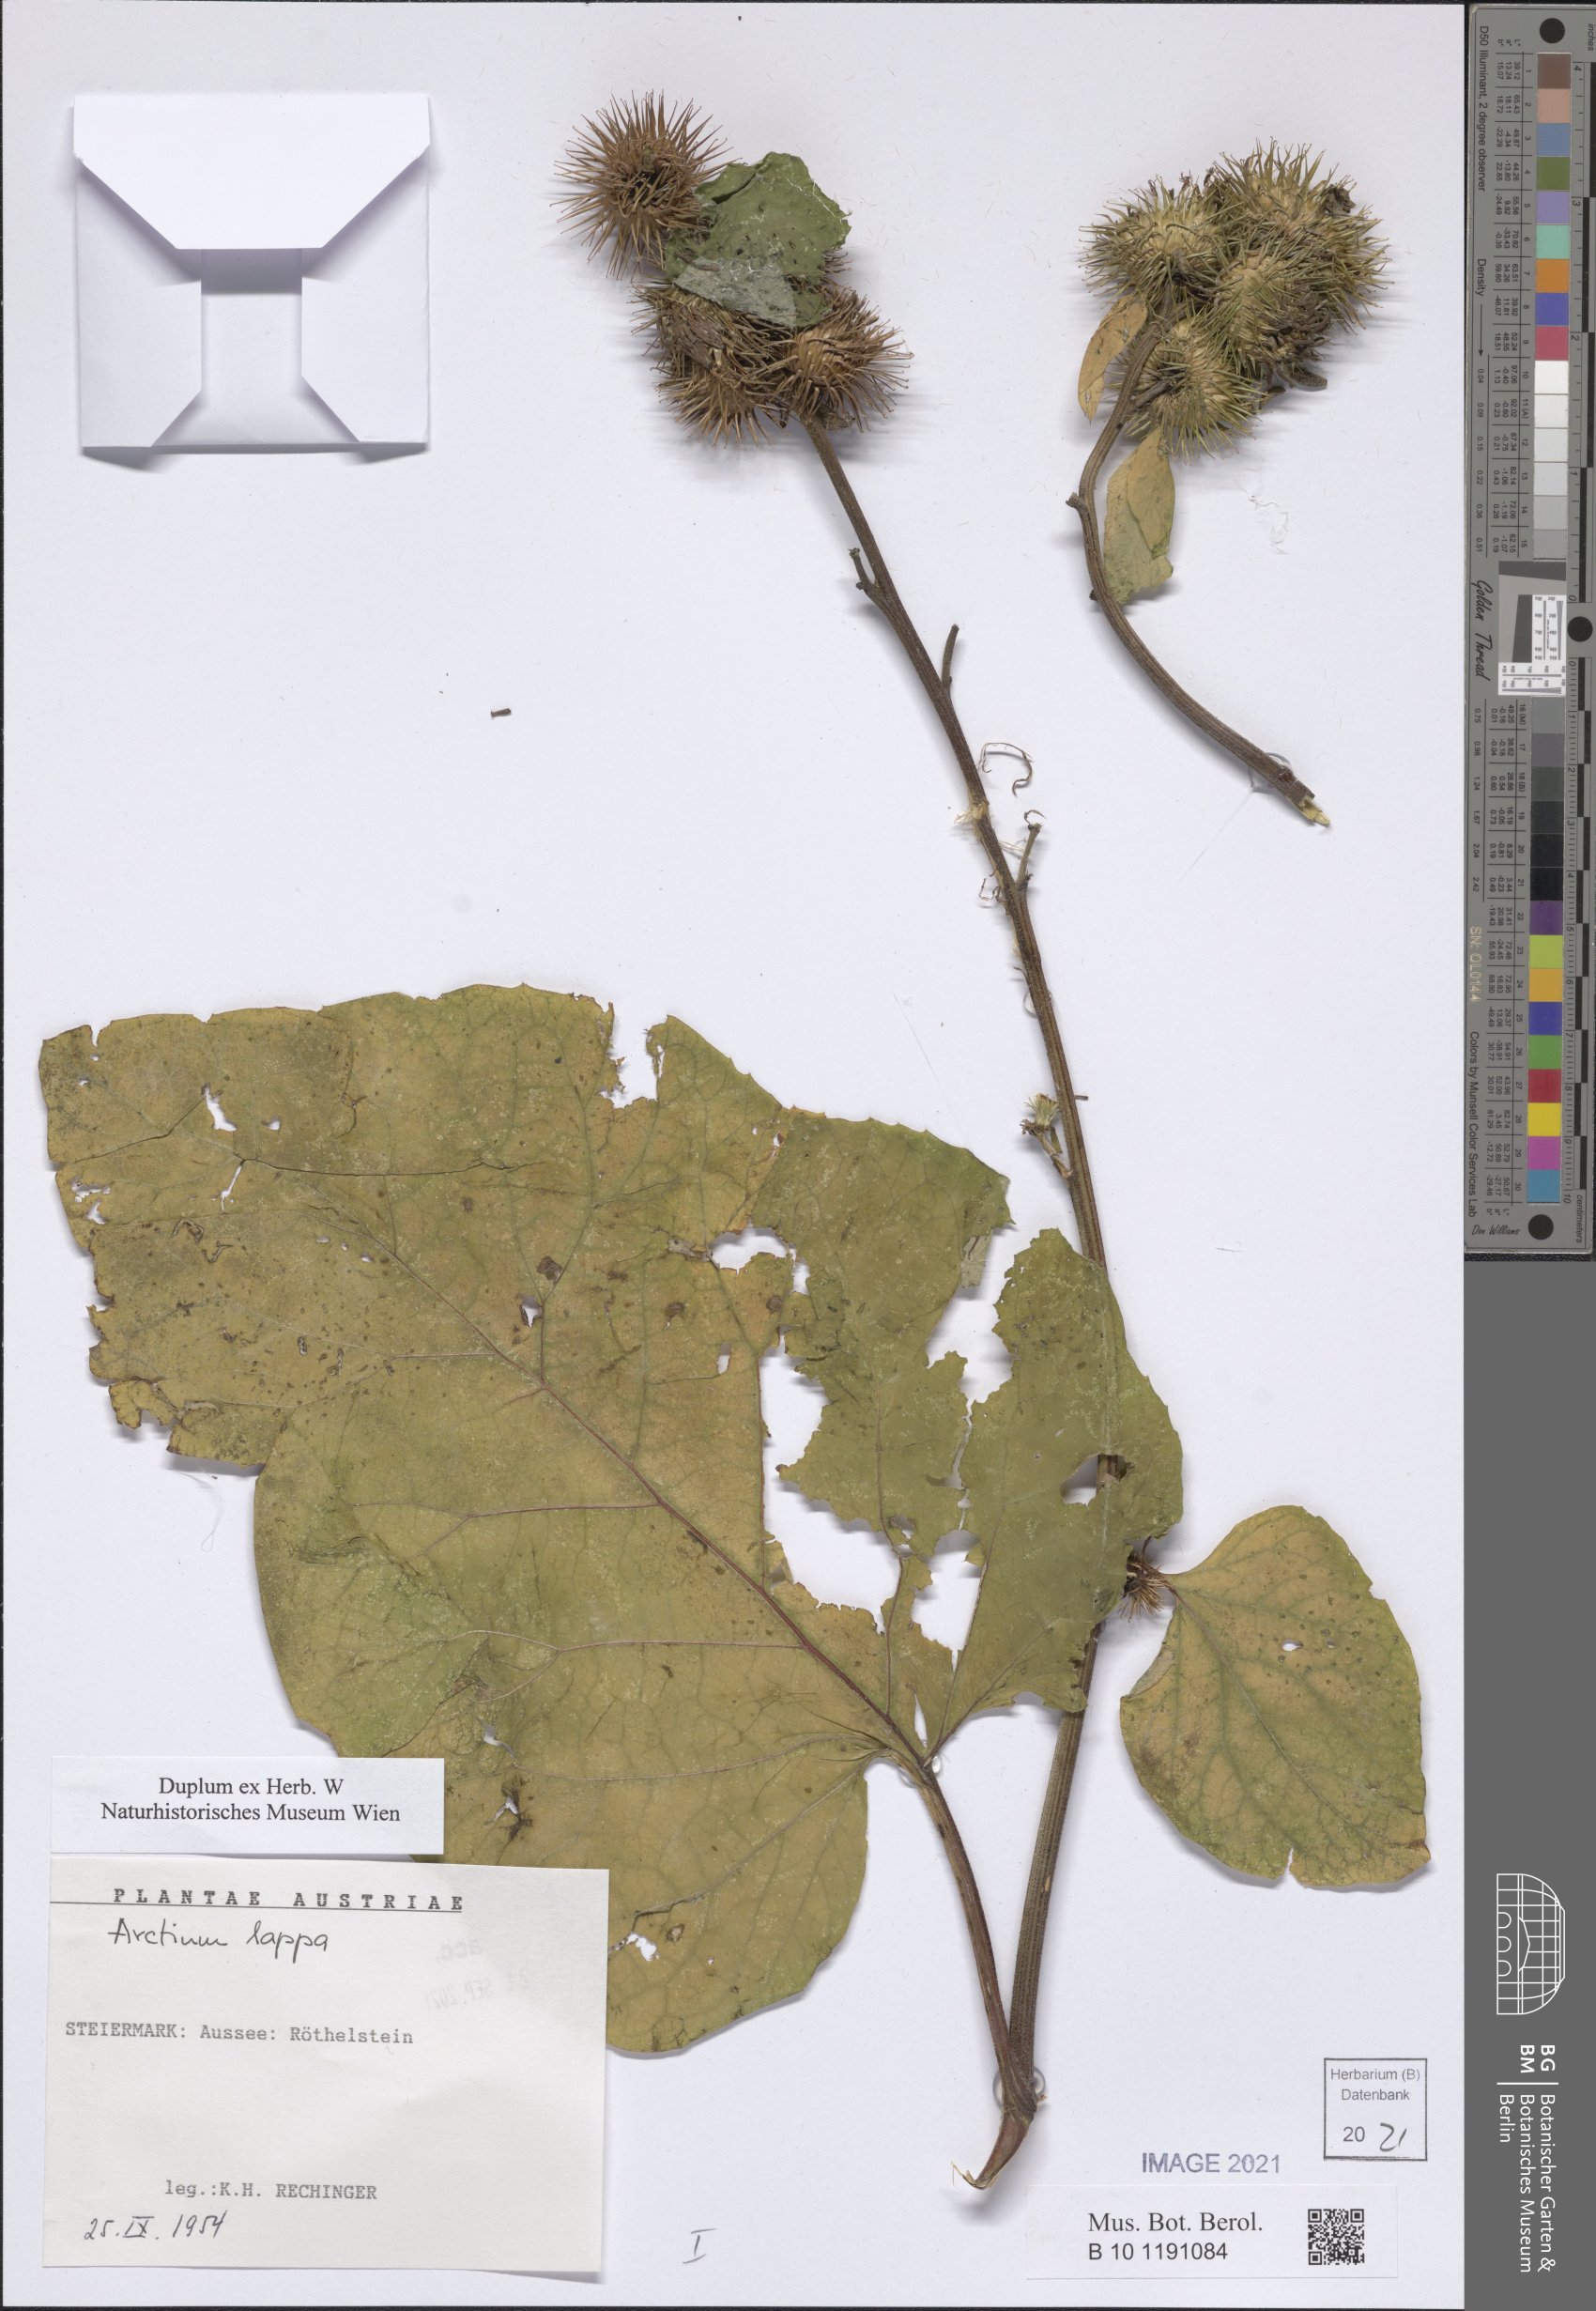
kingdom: Plantae
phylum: Tracheophyta
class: Magnoliopsida
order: Asterales
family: Asteraceae
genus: Arctium
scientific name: Arctium lappa
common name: Greater burdock
